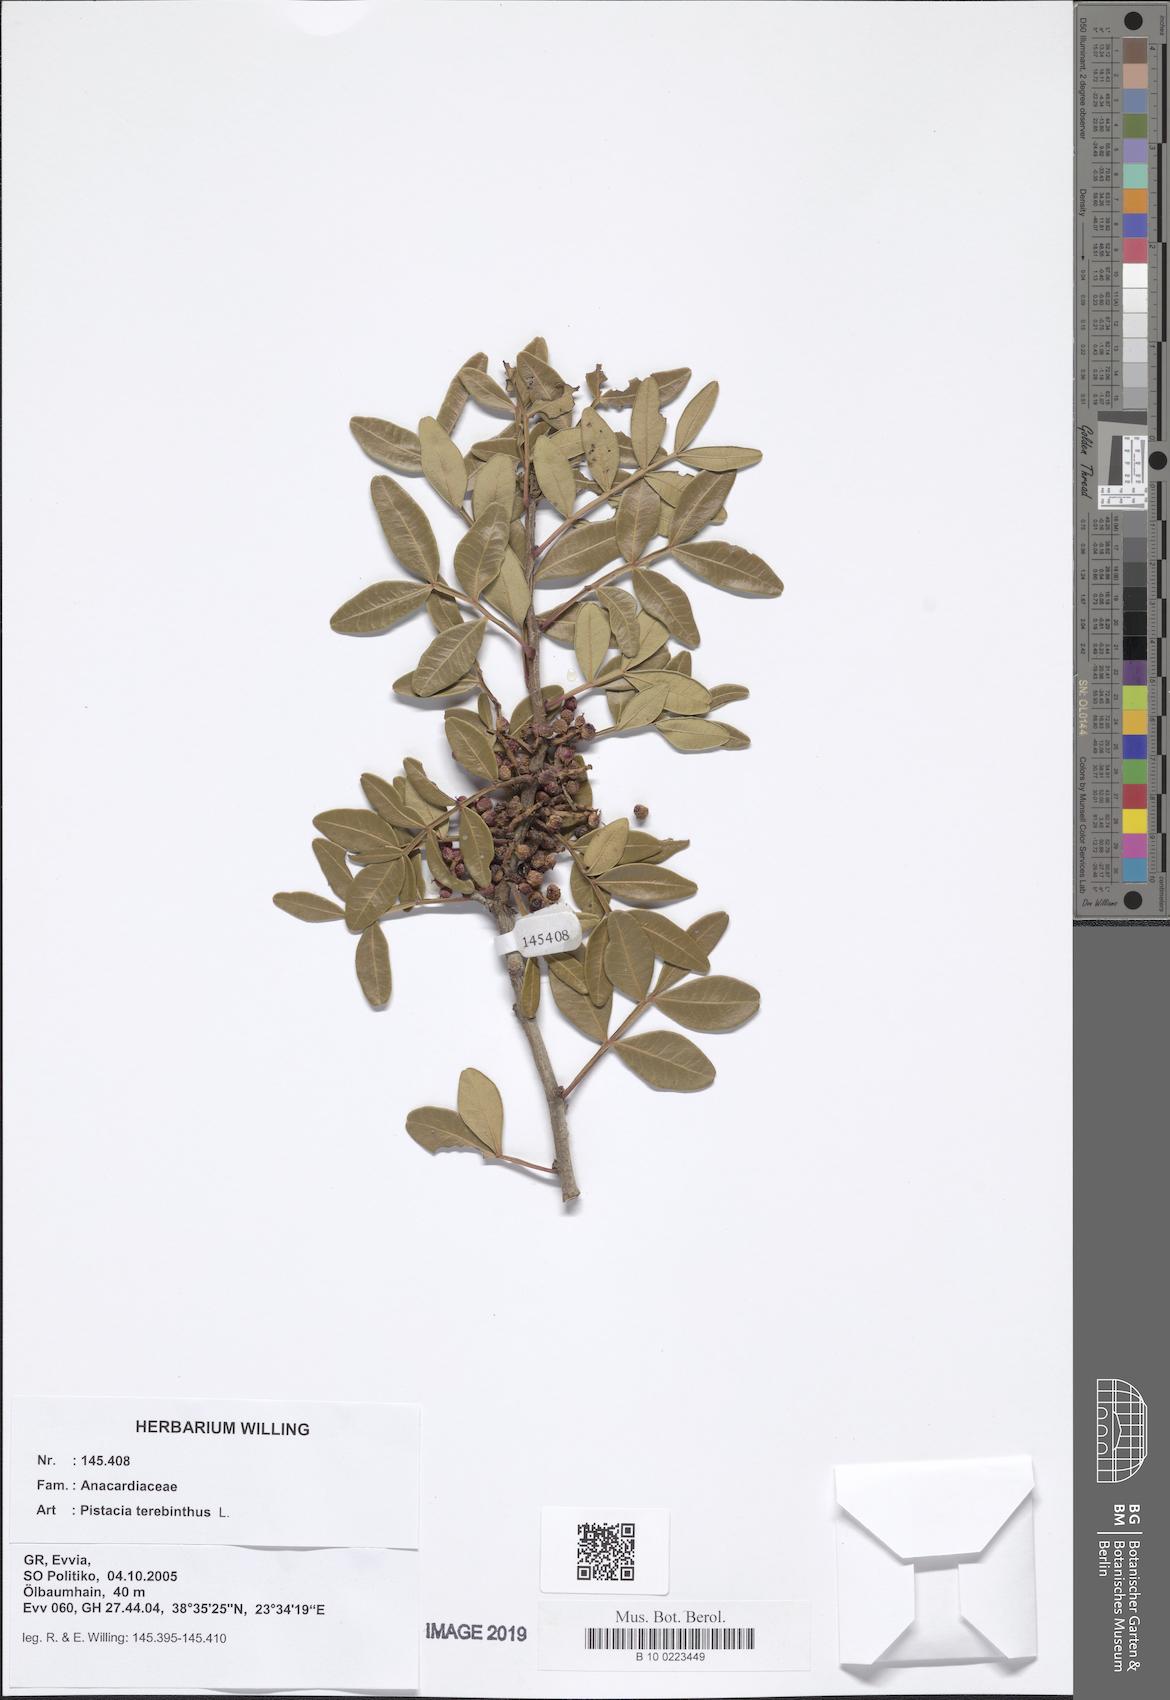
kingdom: Plantae
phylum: Tracheophyta
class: Magnoliopsida
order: Sapindales
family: Anacardiaceae
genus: Pistacia
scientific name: Pistacia terebinthus
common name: Terebinth
